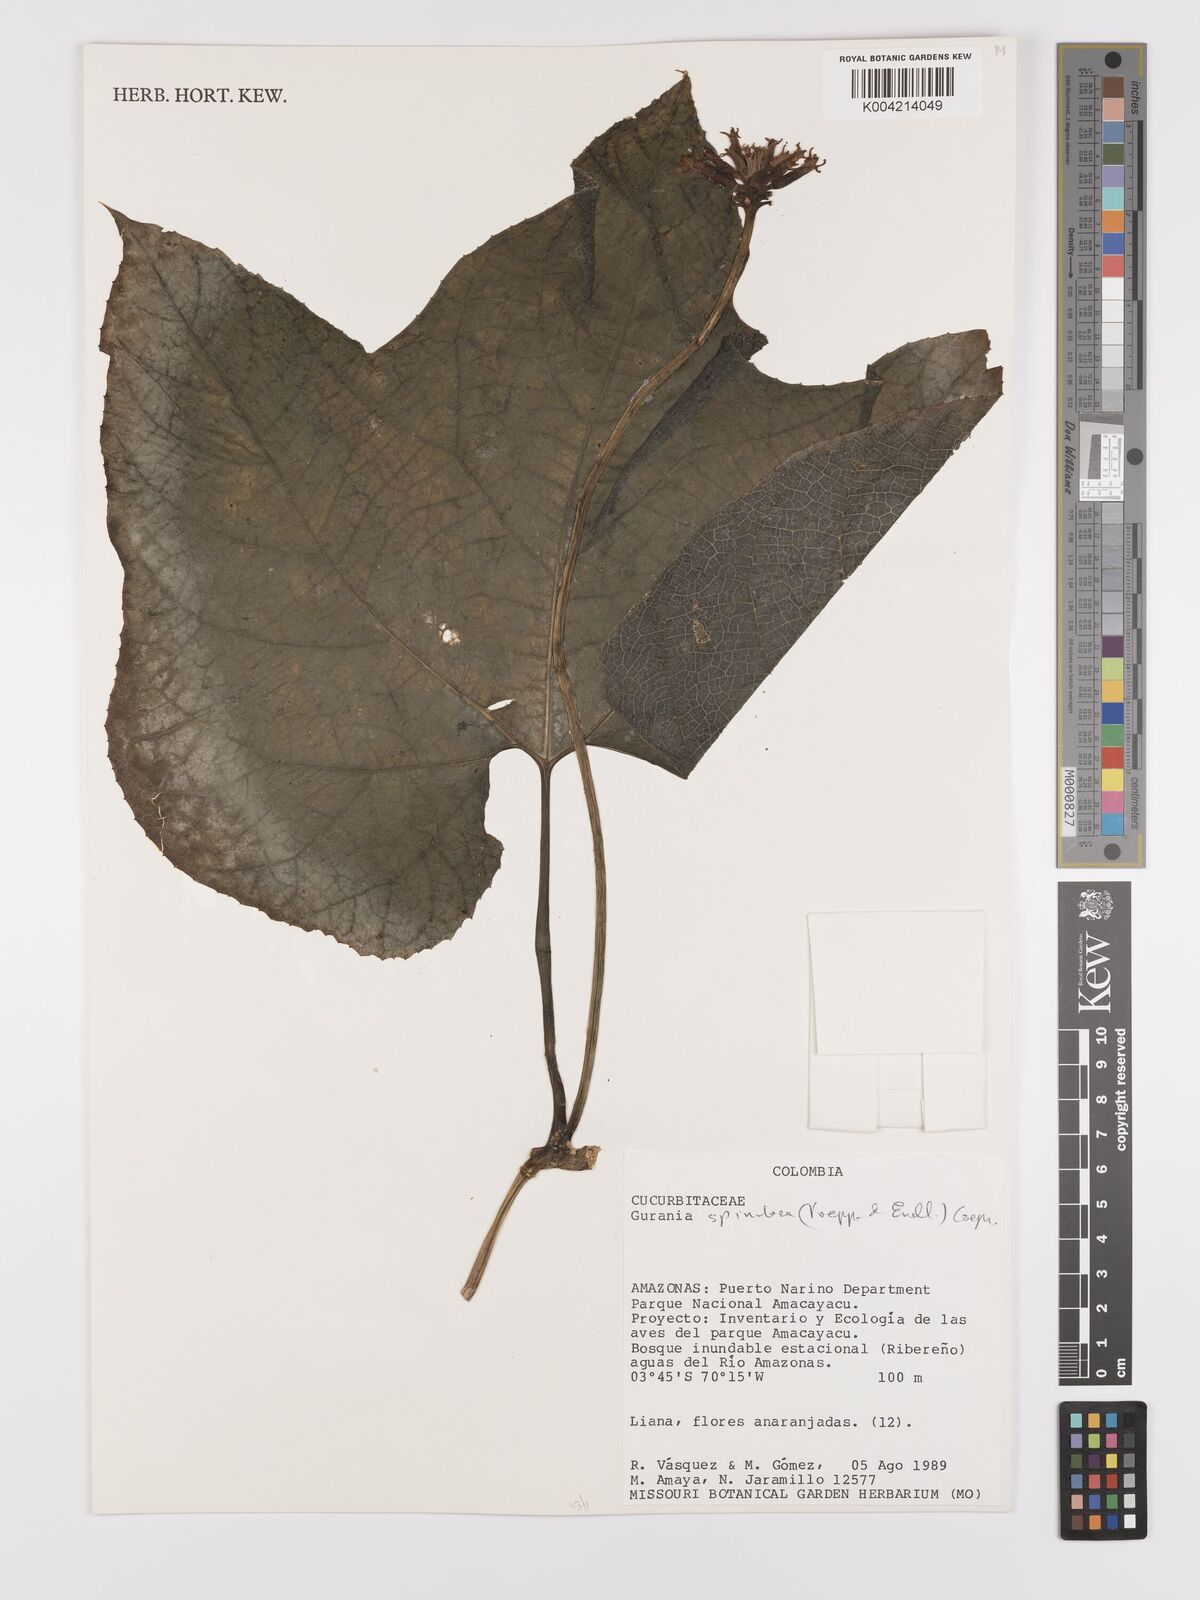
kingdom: Plantae
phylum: Tracheophyta
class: Magnoliopsida
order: Cucurbitales
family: Cucurbitaceae
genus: Gurania
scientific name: Gurania lobata
